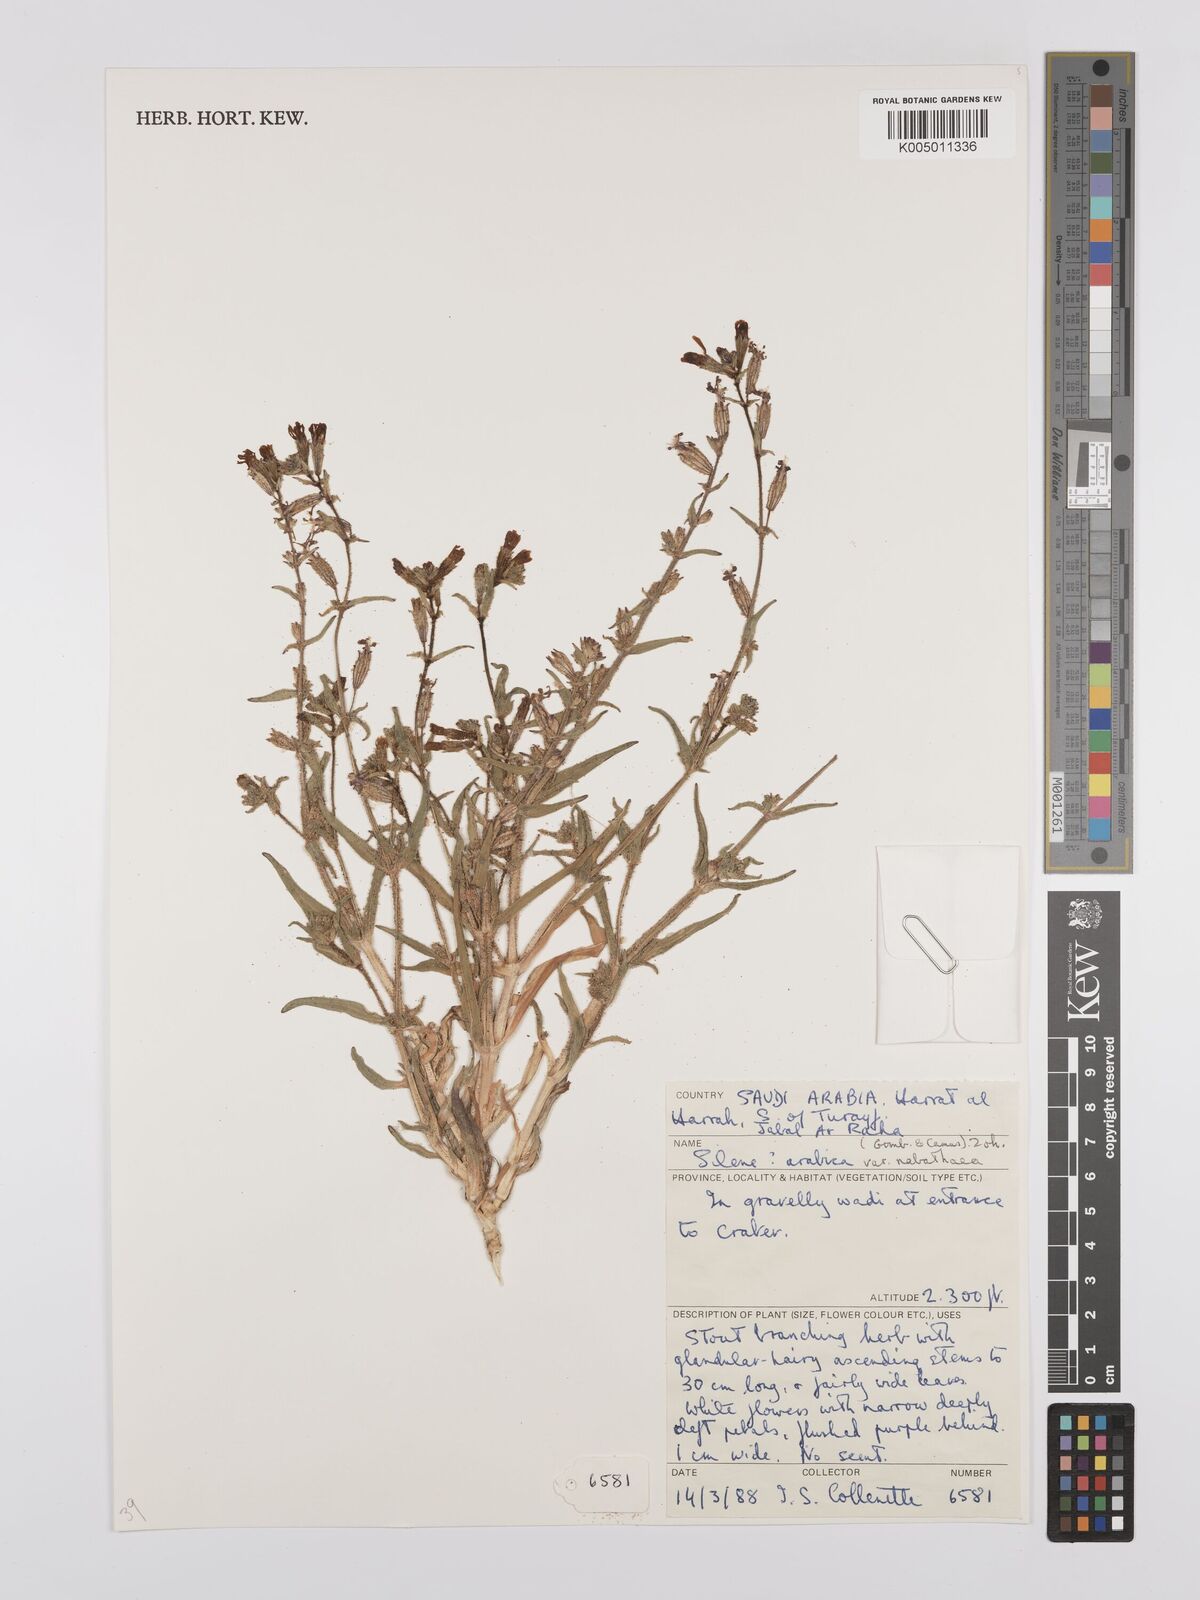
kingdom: Plantae
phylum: Tracheophyta
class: Magnoliopsida
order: Caryophyllales
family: Caryophyllaceae
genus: Silene
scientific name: Silene arabica
